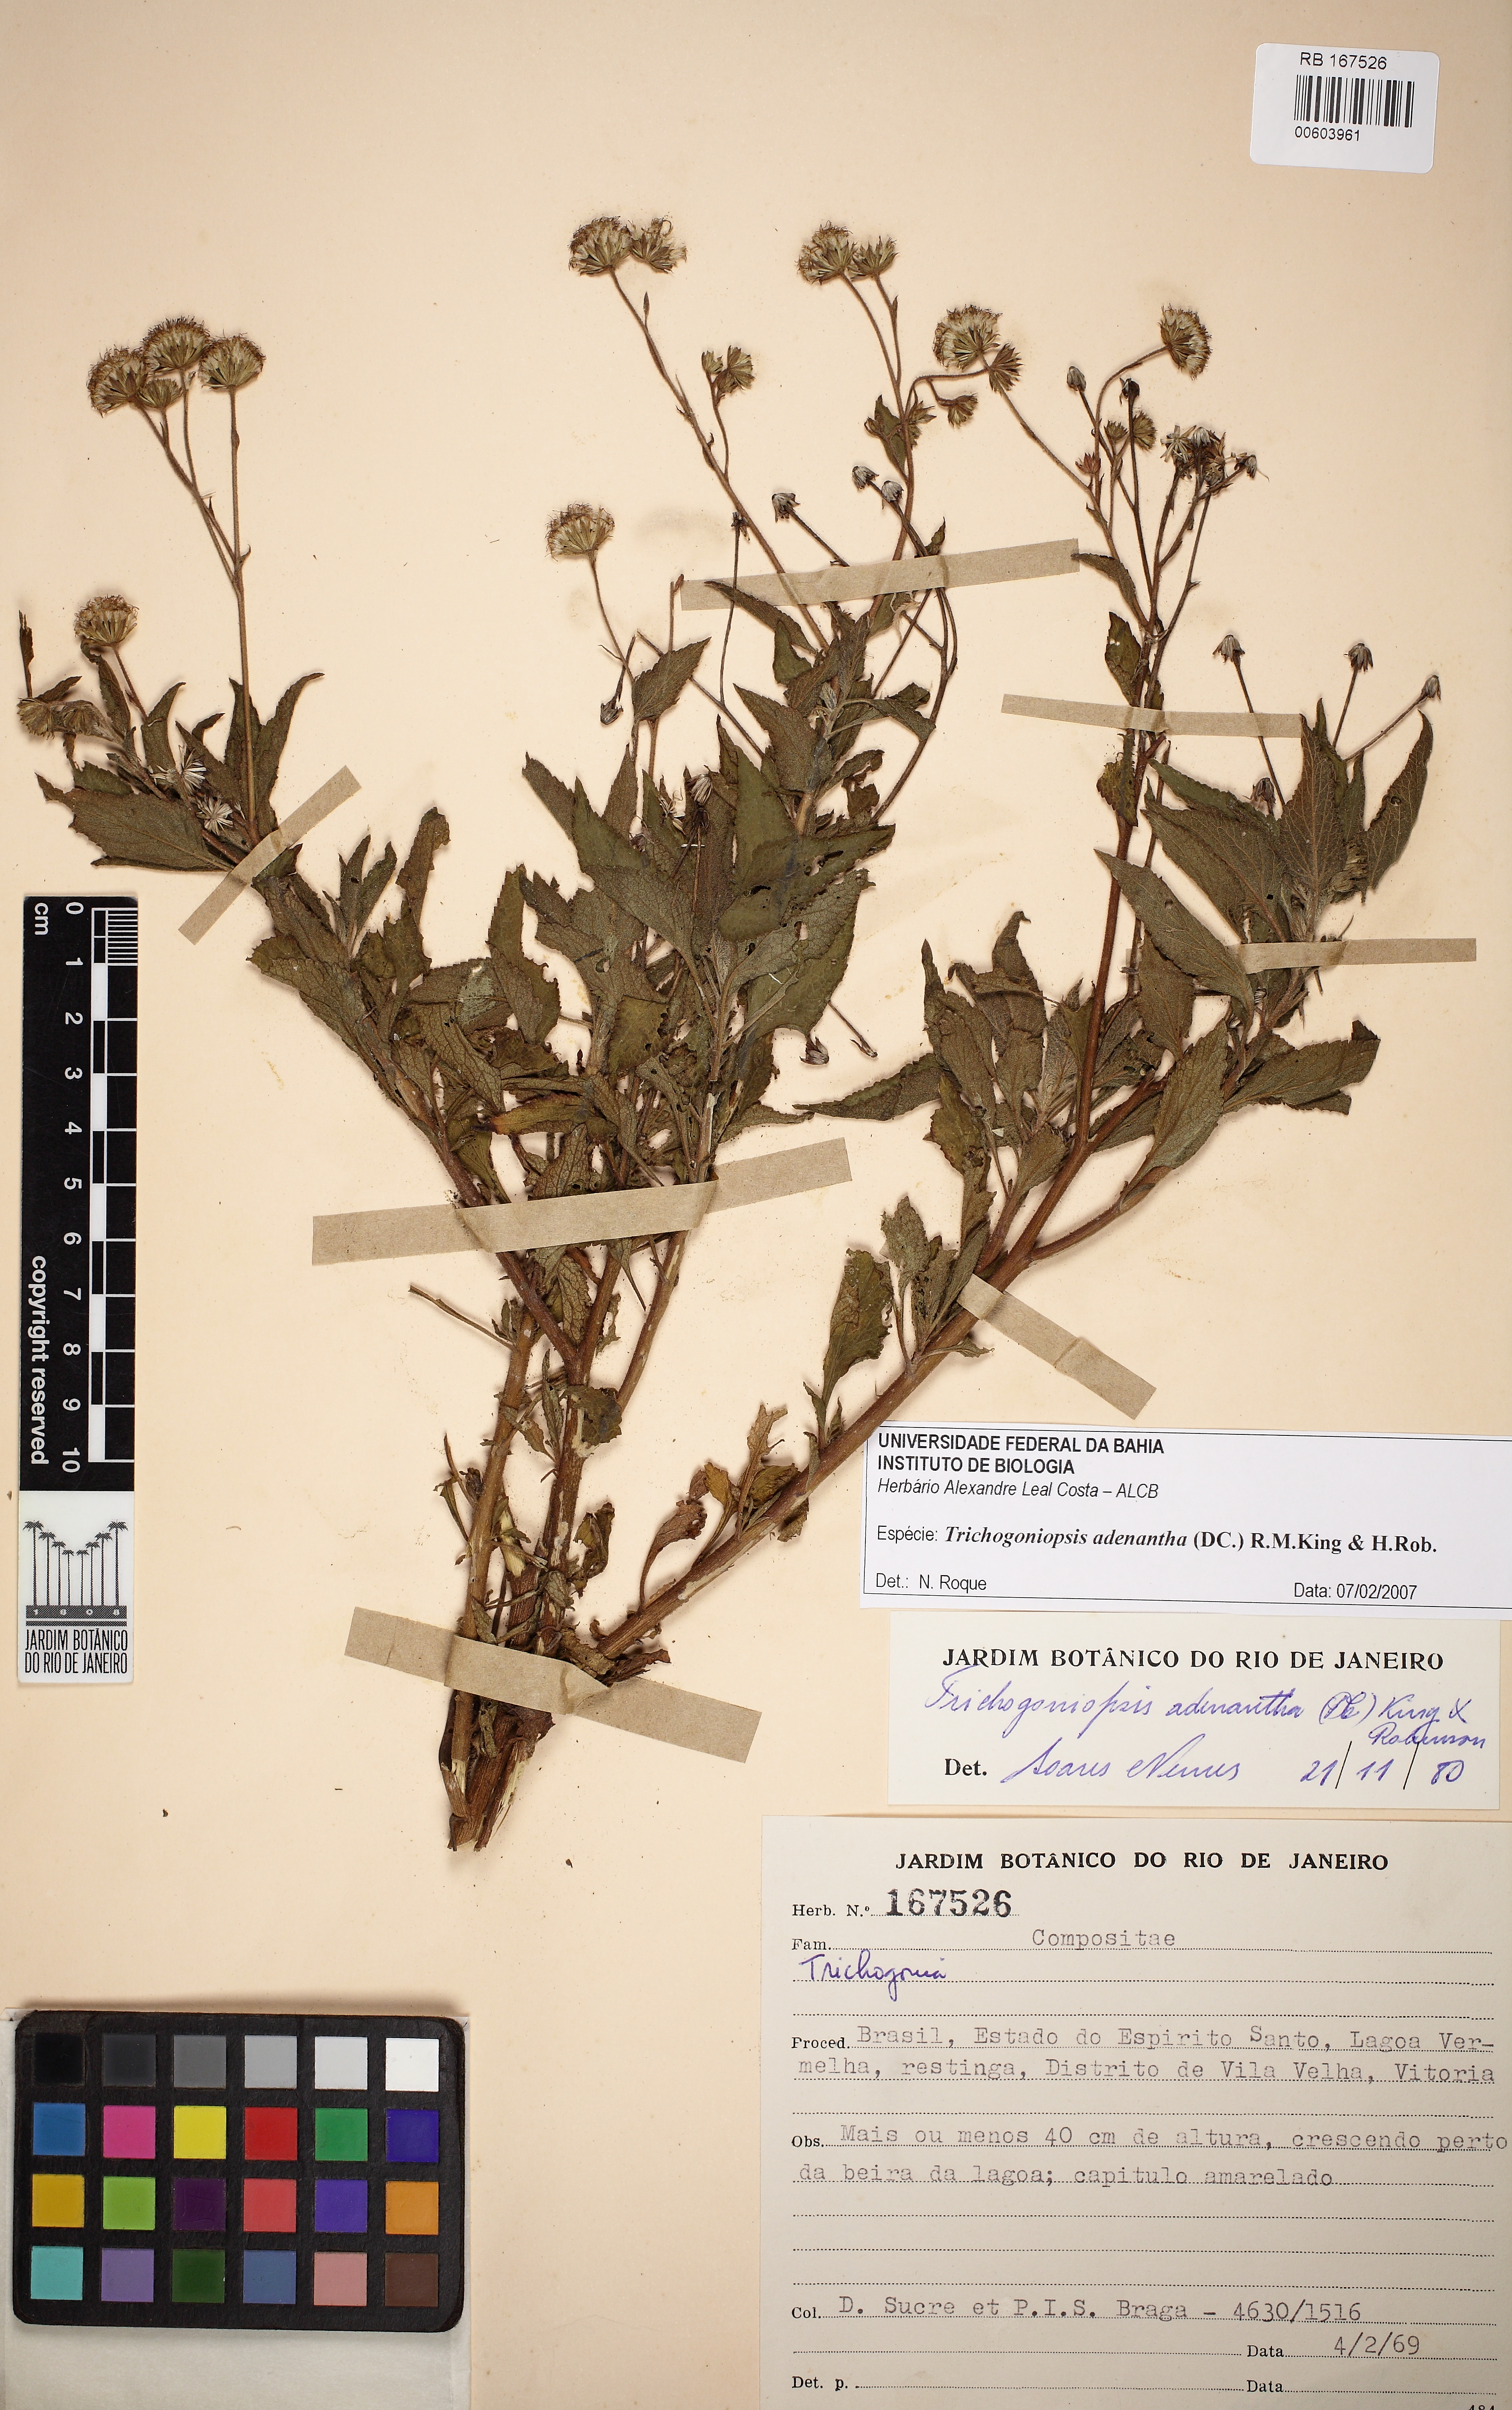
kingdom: Plantae
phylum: Tracheophyta
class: Magnoliopsida
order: Asterales
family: Asteraceae
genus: Trichogoniopsis
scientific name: Trichogoniopsis adenantha
